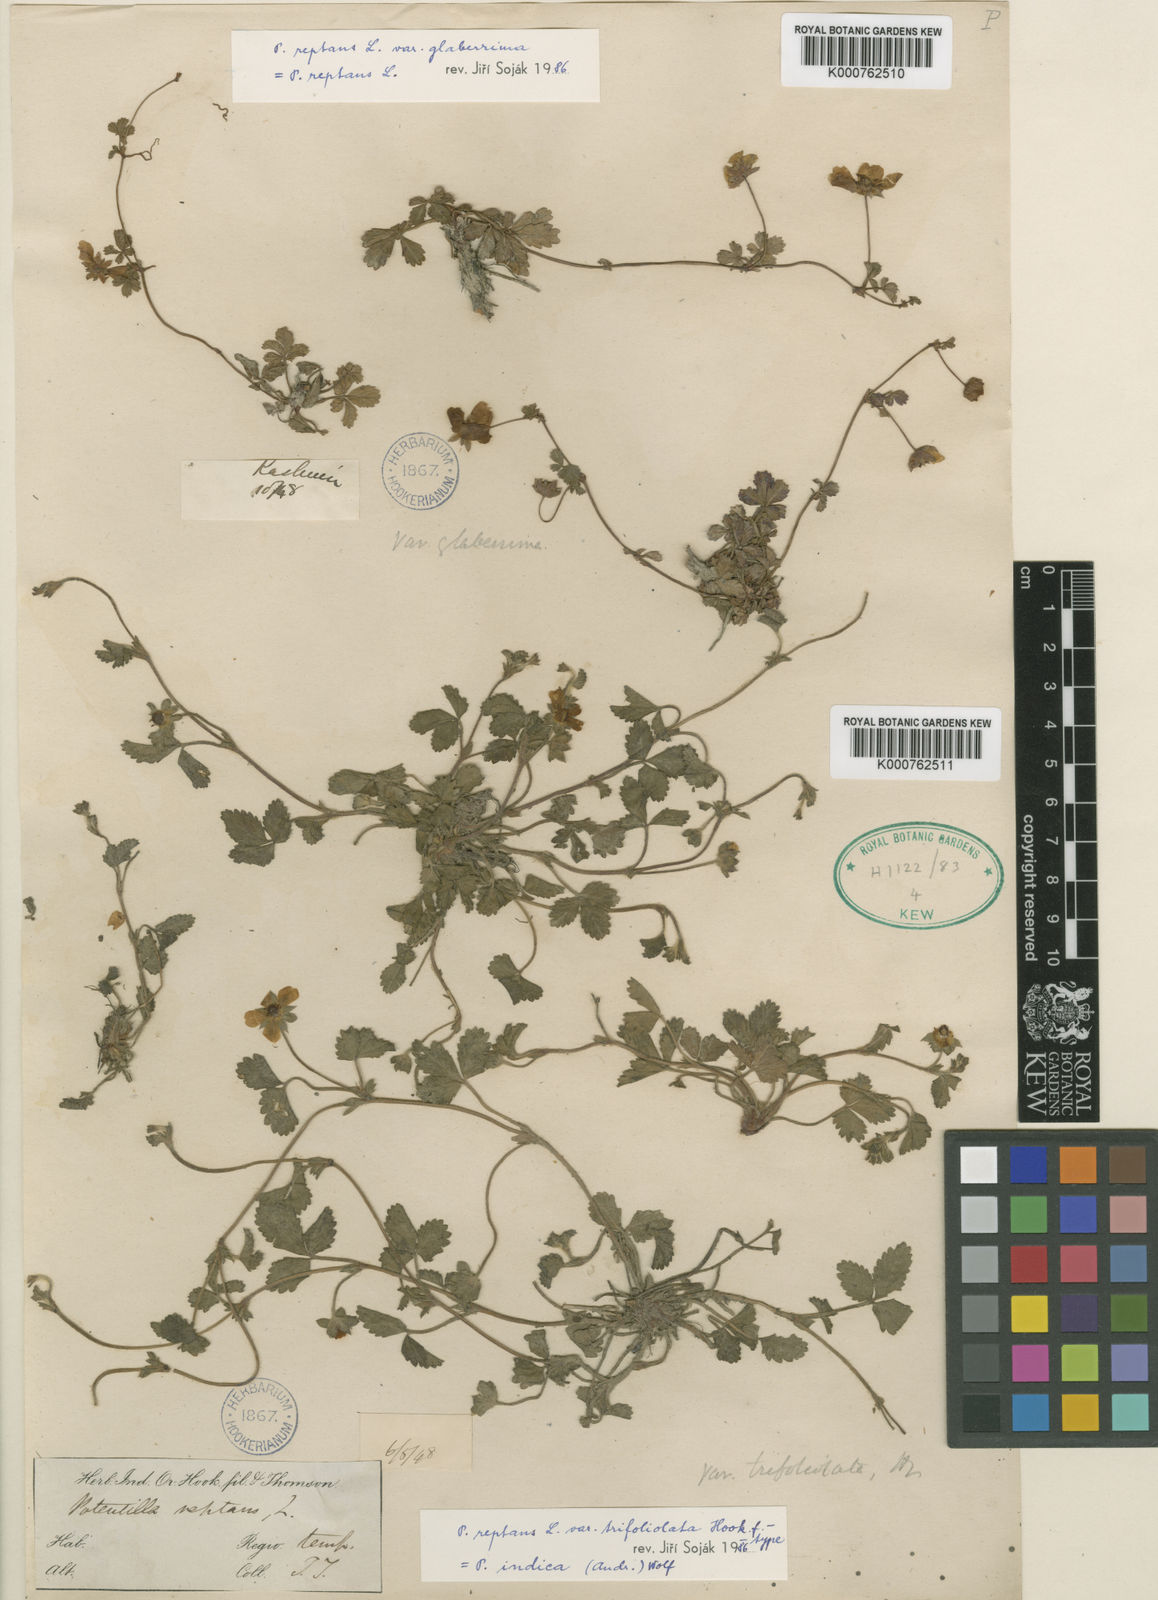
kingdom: Plantae
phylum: Tracheophyta
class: Magnoliopsida
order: Rosales
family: Rosaceae
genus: Potentilla
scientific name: Potentilla reptans
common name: Creeping cinquefoil
